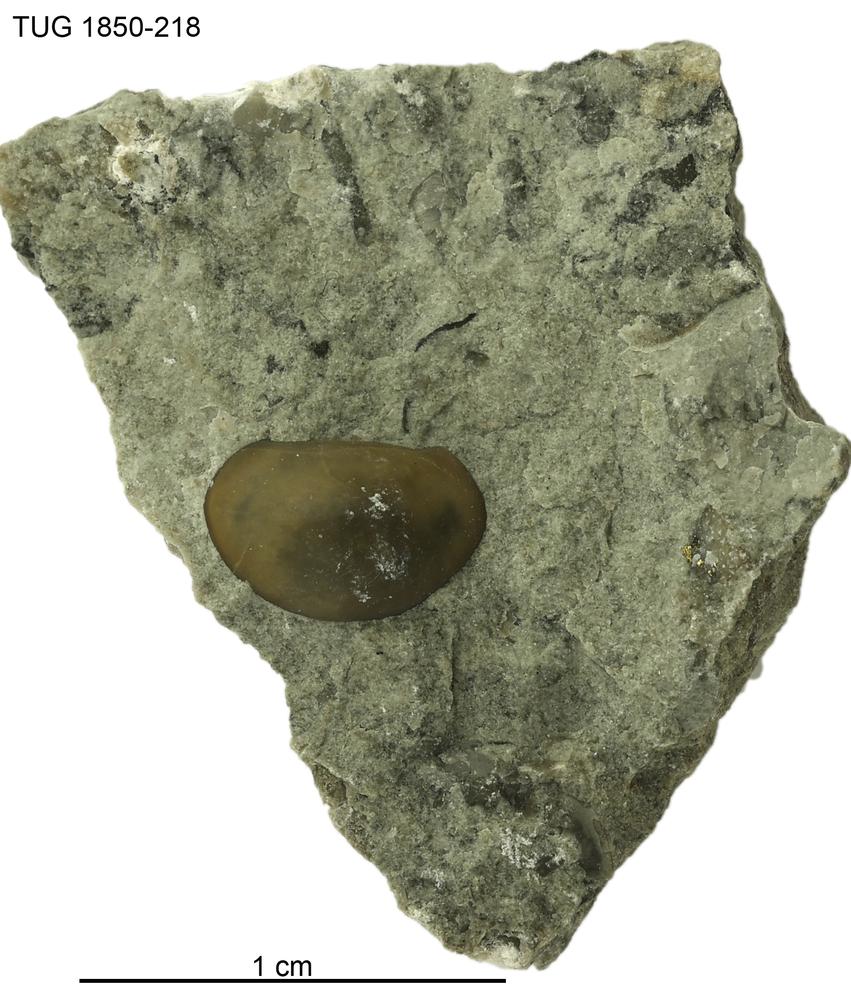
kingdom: Animalia
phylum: Arthropoda
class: Ostracoda
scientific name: Ostracoda
